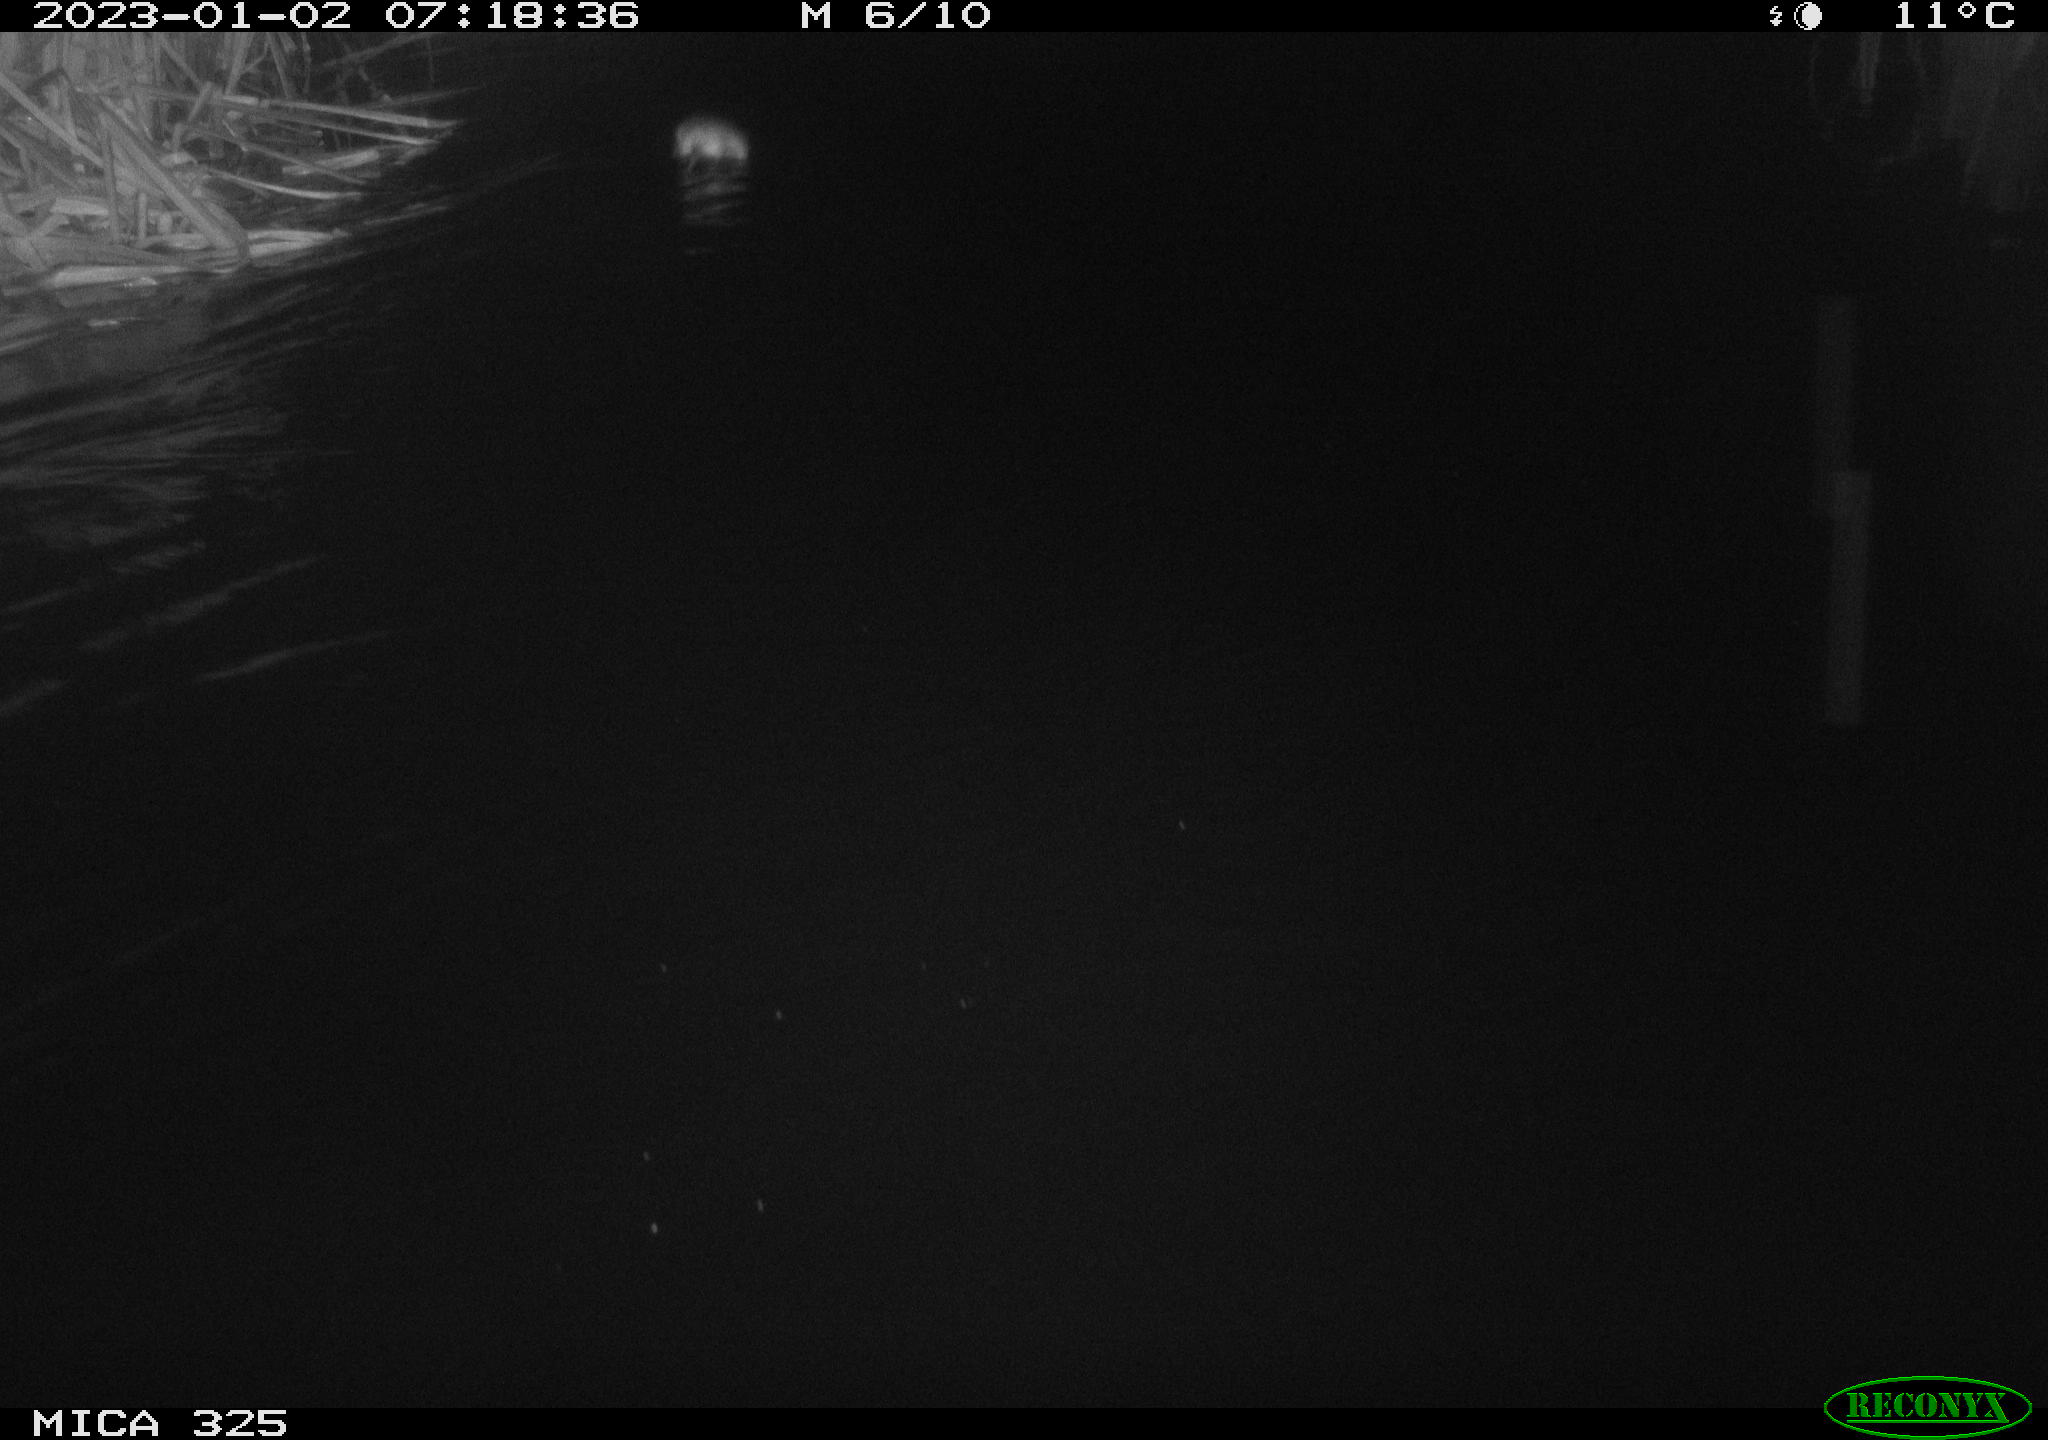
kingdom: Animalia
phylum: Chordata
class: Mammalia
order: Rodentia
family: Cricetidae
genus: Ondatra
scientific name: Ondatra zibethicus
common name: Muskrat
